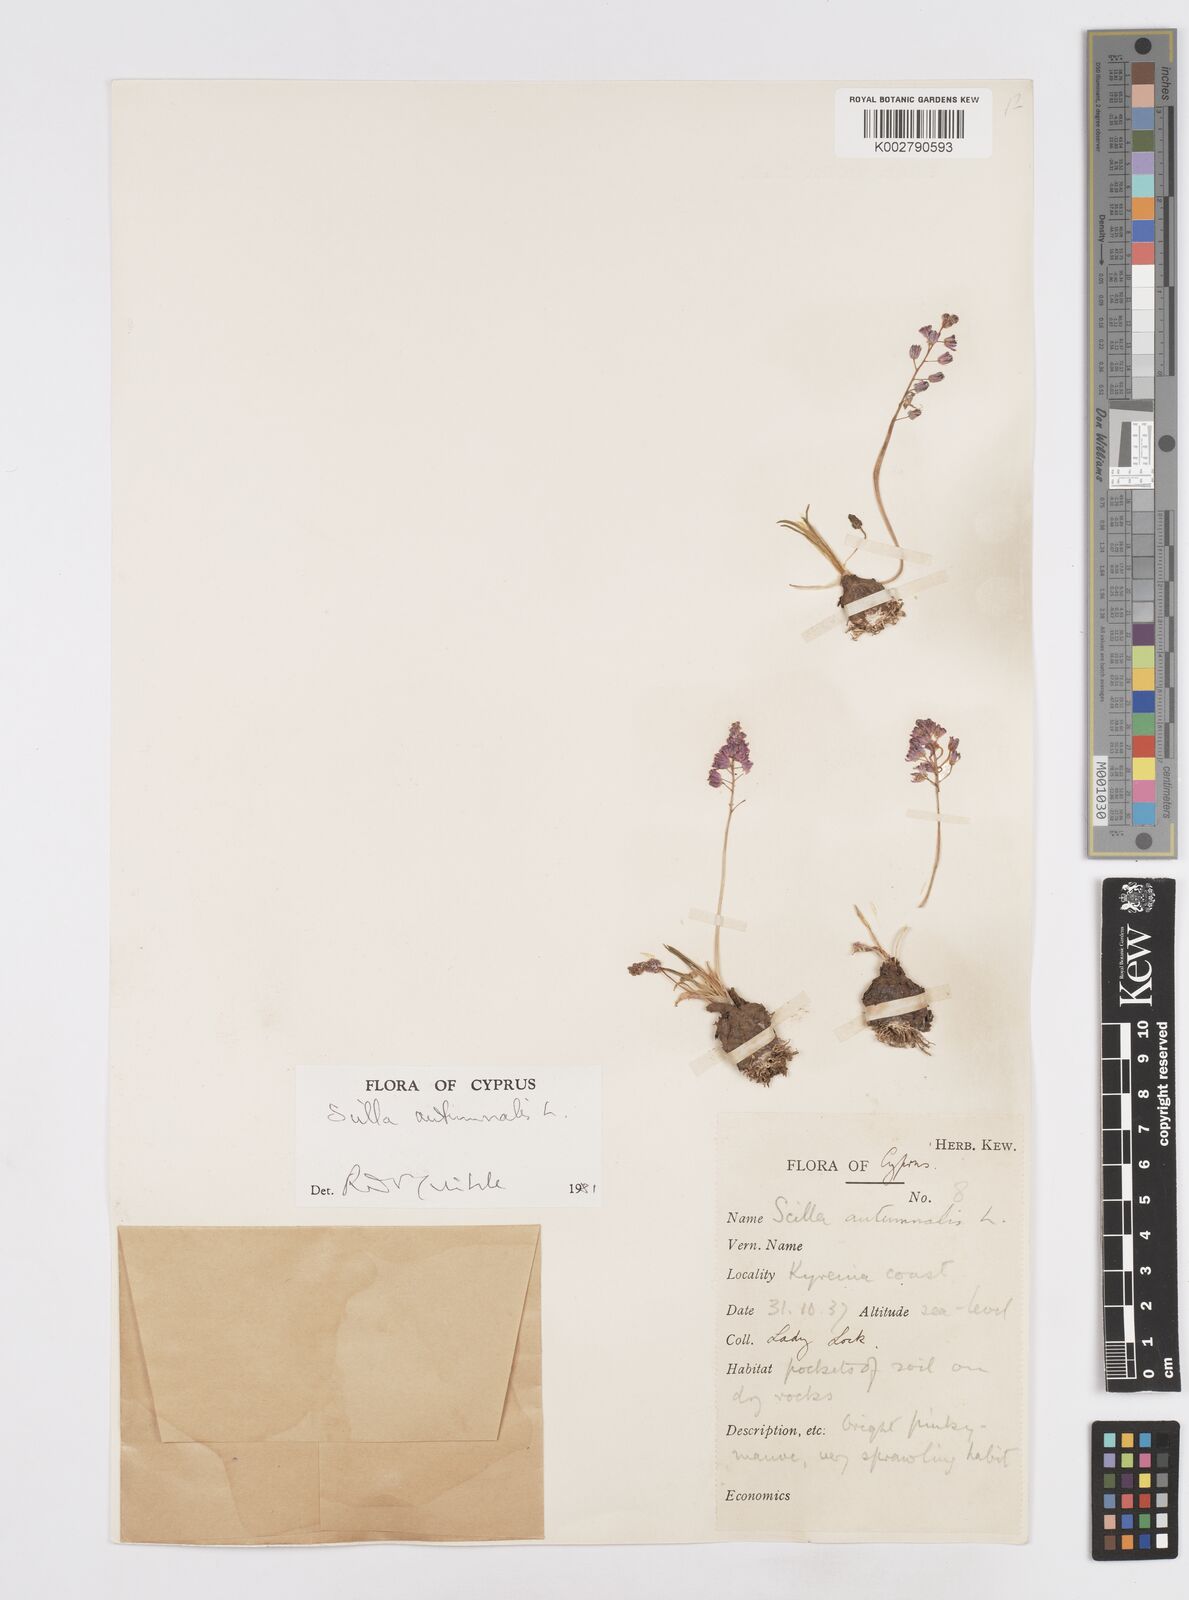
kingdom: Plantae
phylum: Tracheophyta
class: Liliopsida
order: Asparagales
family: Asparagaceae
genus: Prospero
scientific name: Prospero autumnale
